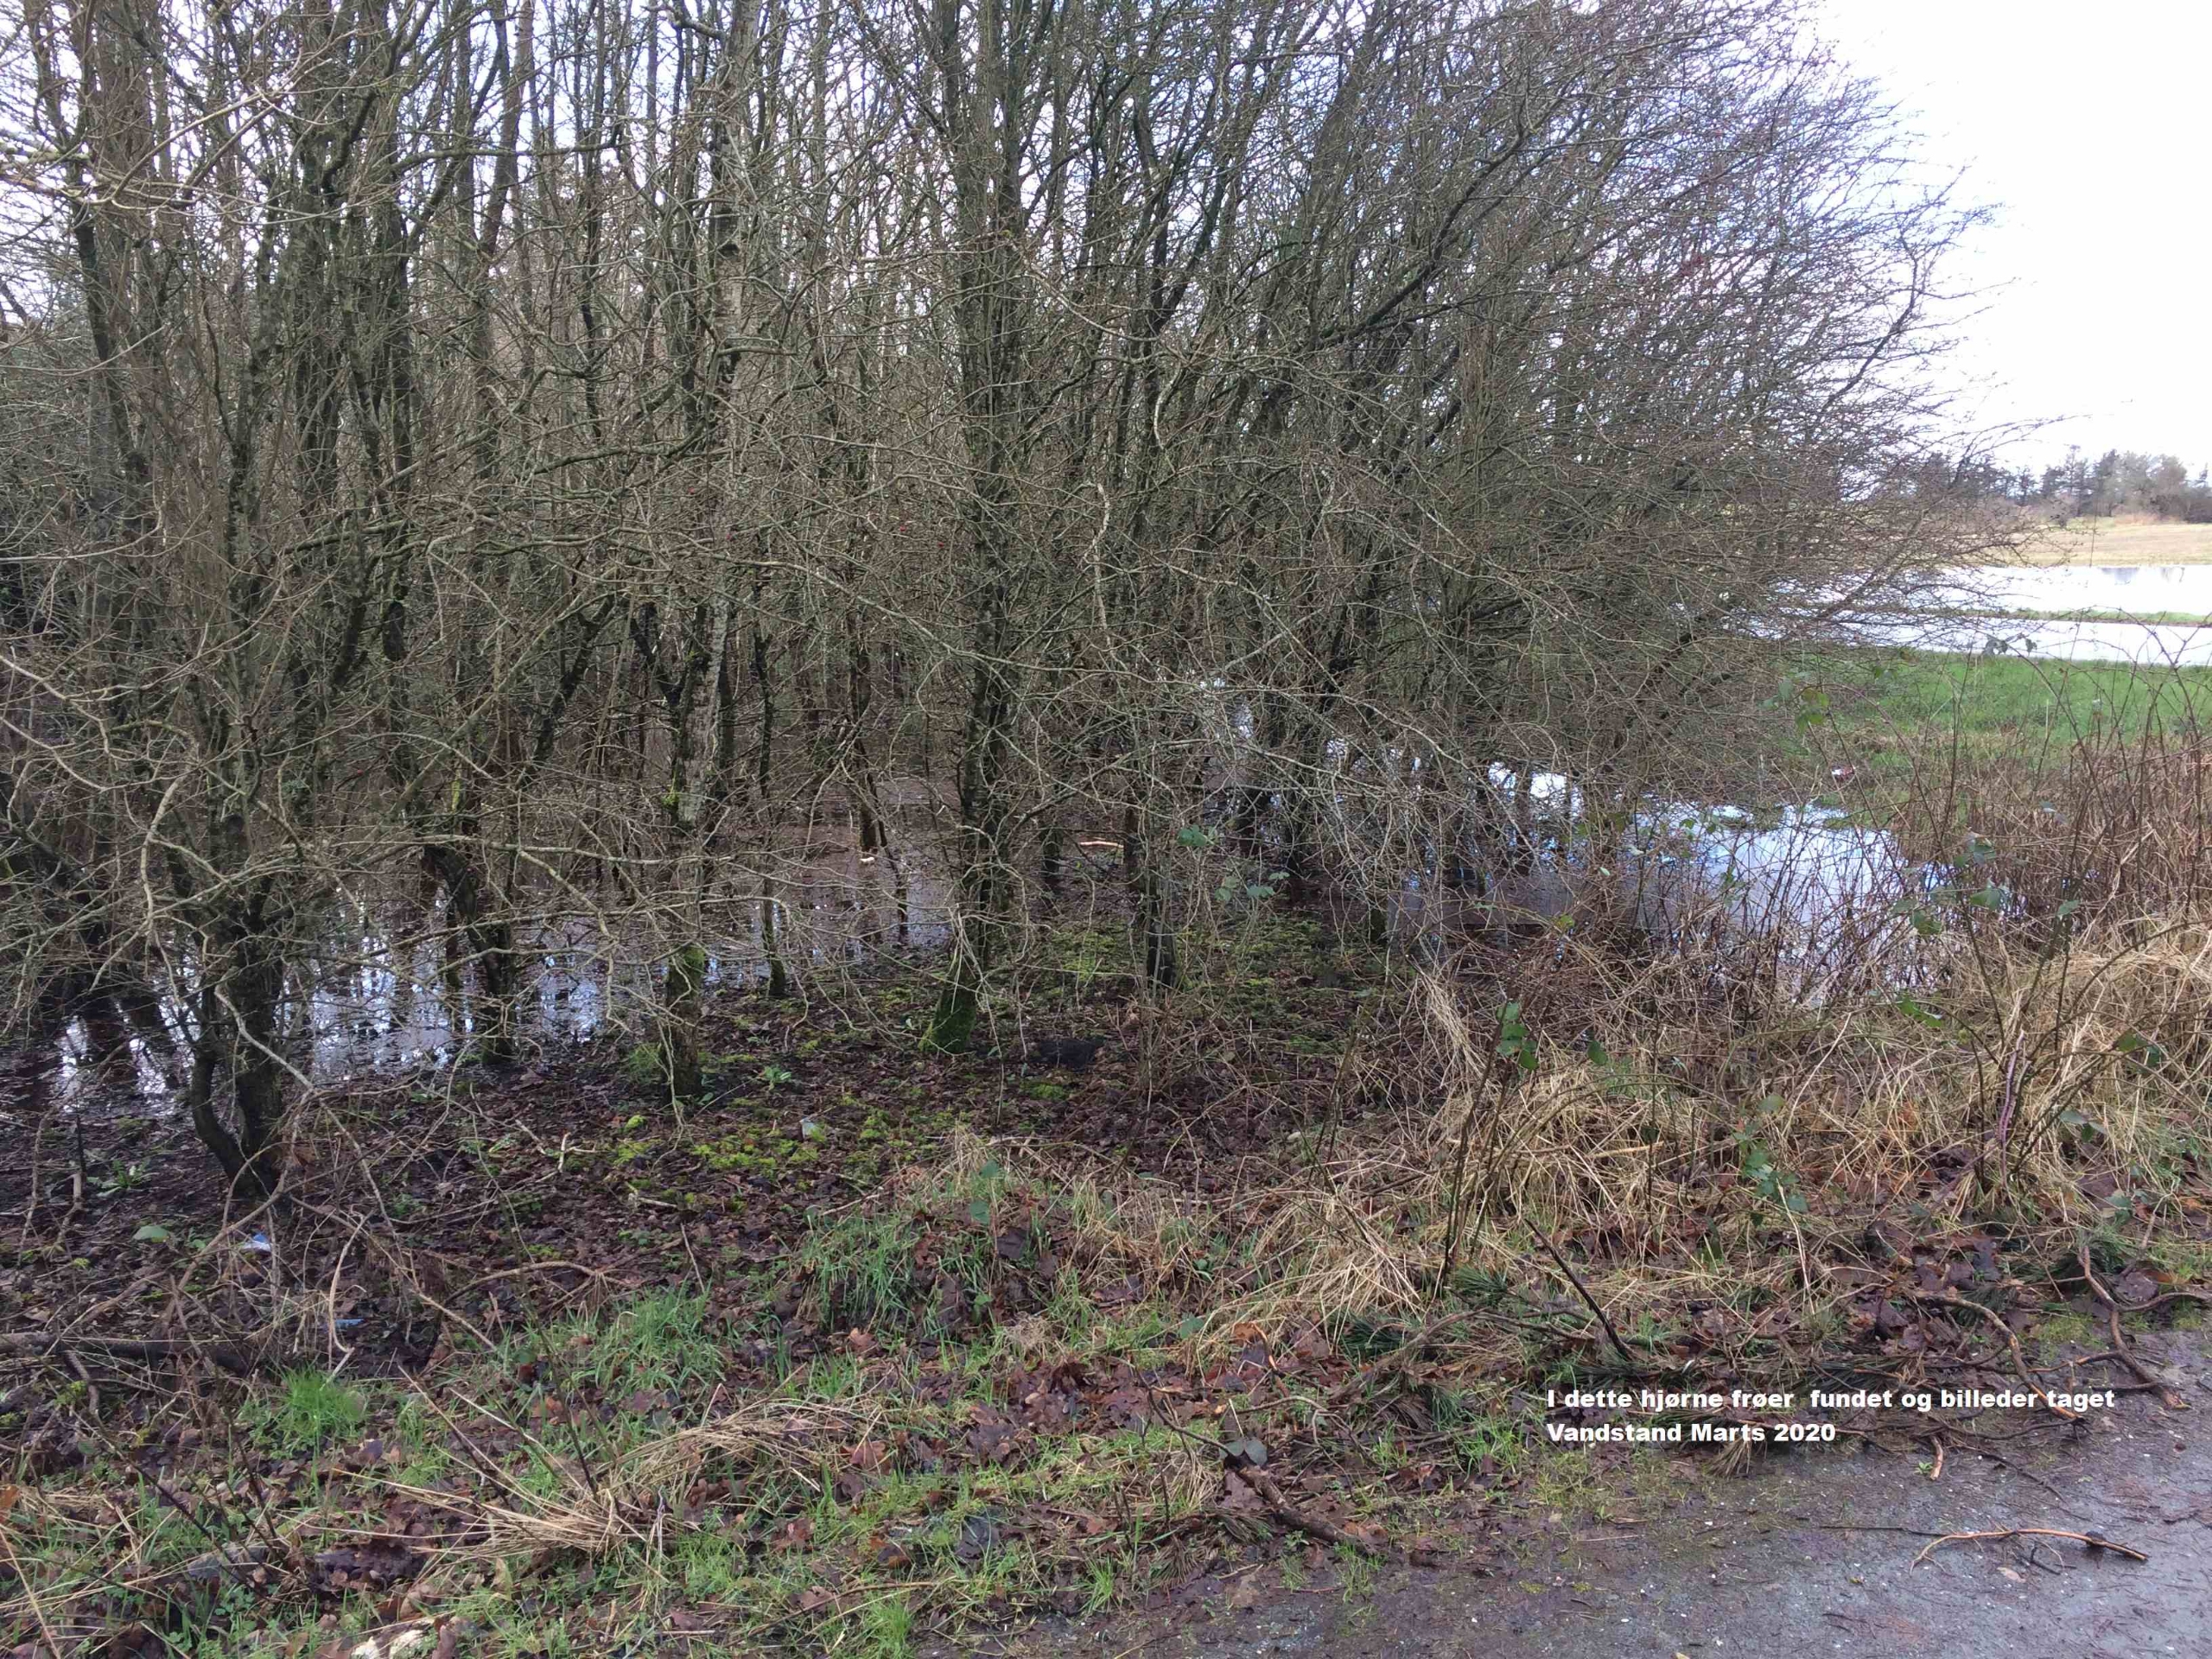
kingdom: Animalia
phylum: Chordata
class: Amphibia
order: Anura
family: Ranidae
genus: Rana
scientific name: Rana arvalis
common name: Spidssnudet frø
